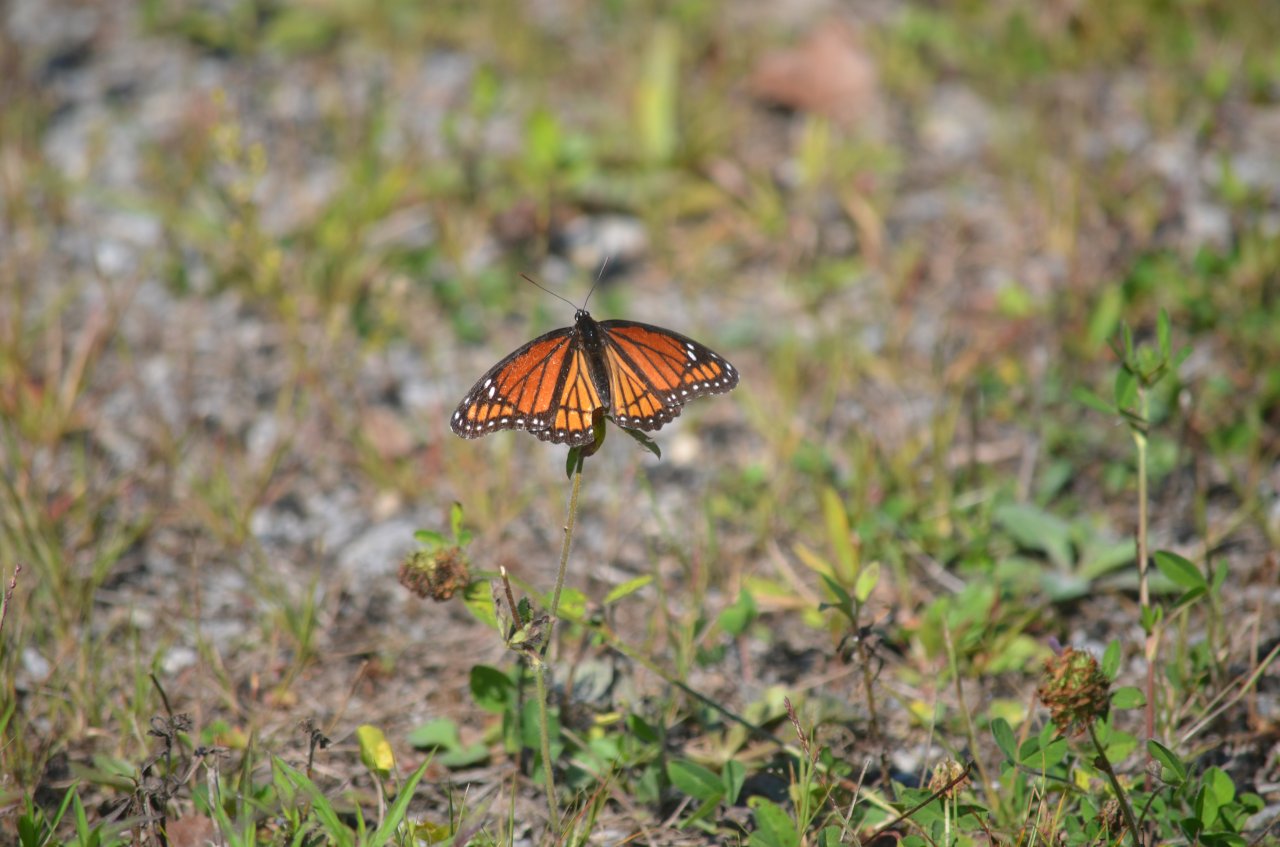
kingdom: Animalia
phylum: Arthropoda
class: Insecta
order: Lepidoptera
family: Nymphalidae
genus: Limenitis
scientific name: Limenitis archippus
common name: Viceroy
